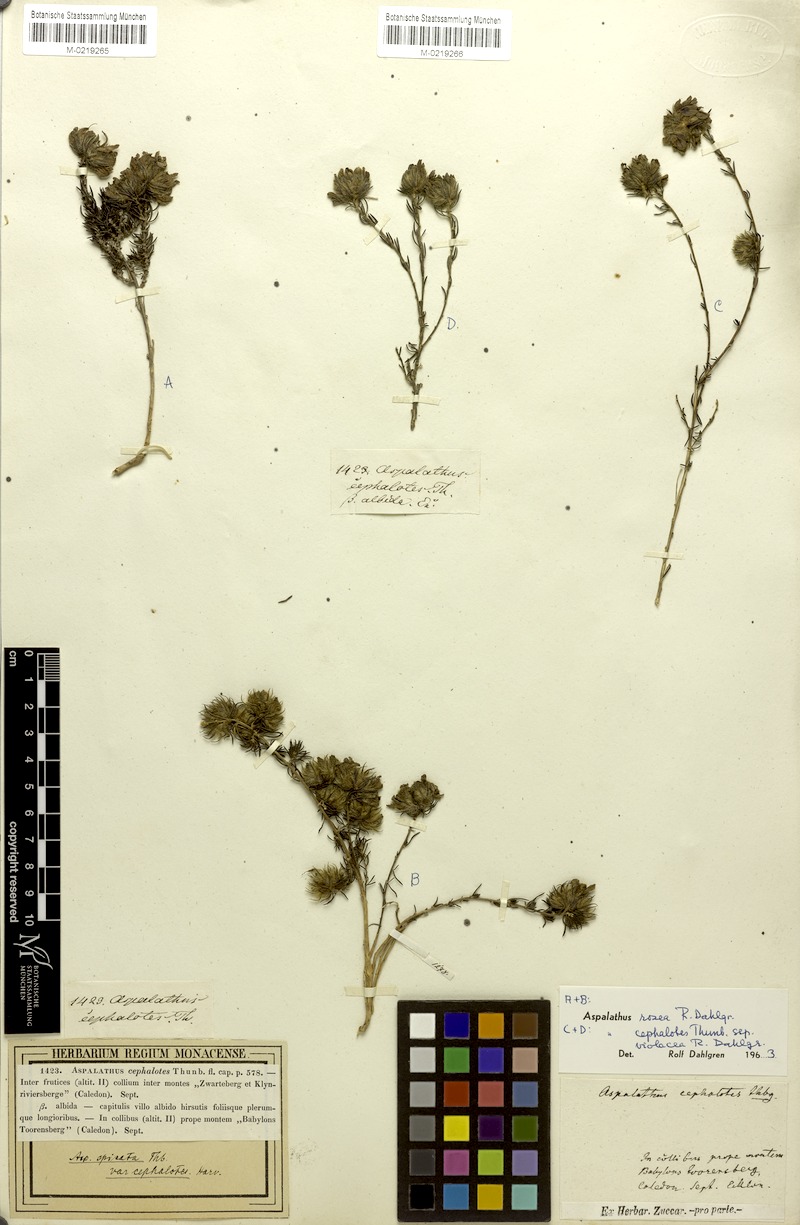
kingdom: Plantae
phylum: Tracheophyta
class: Magnoliopsida
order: Fabales
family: Fabaceae
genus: Aspalathus
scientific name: Aspalathus rosea
